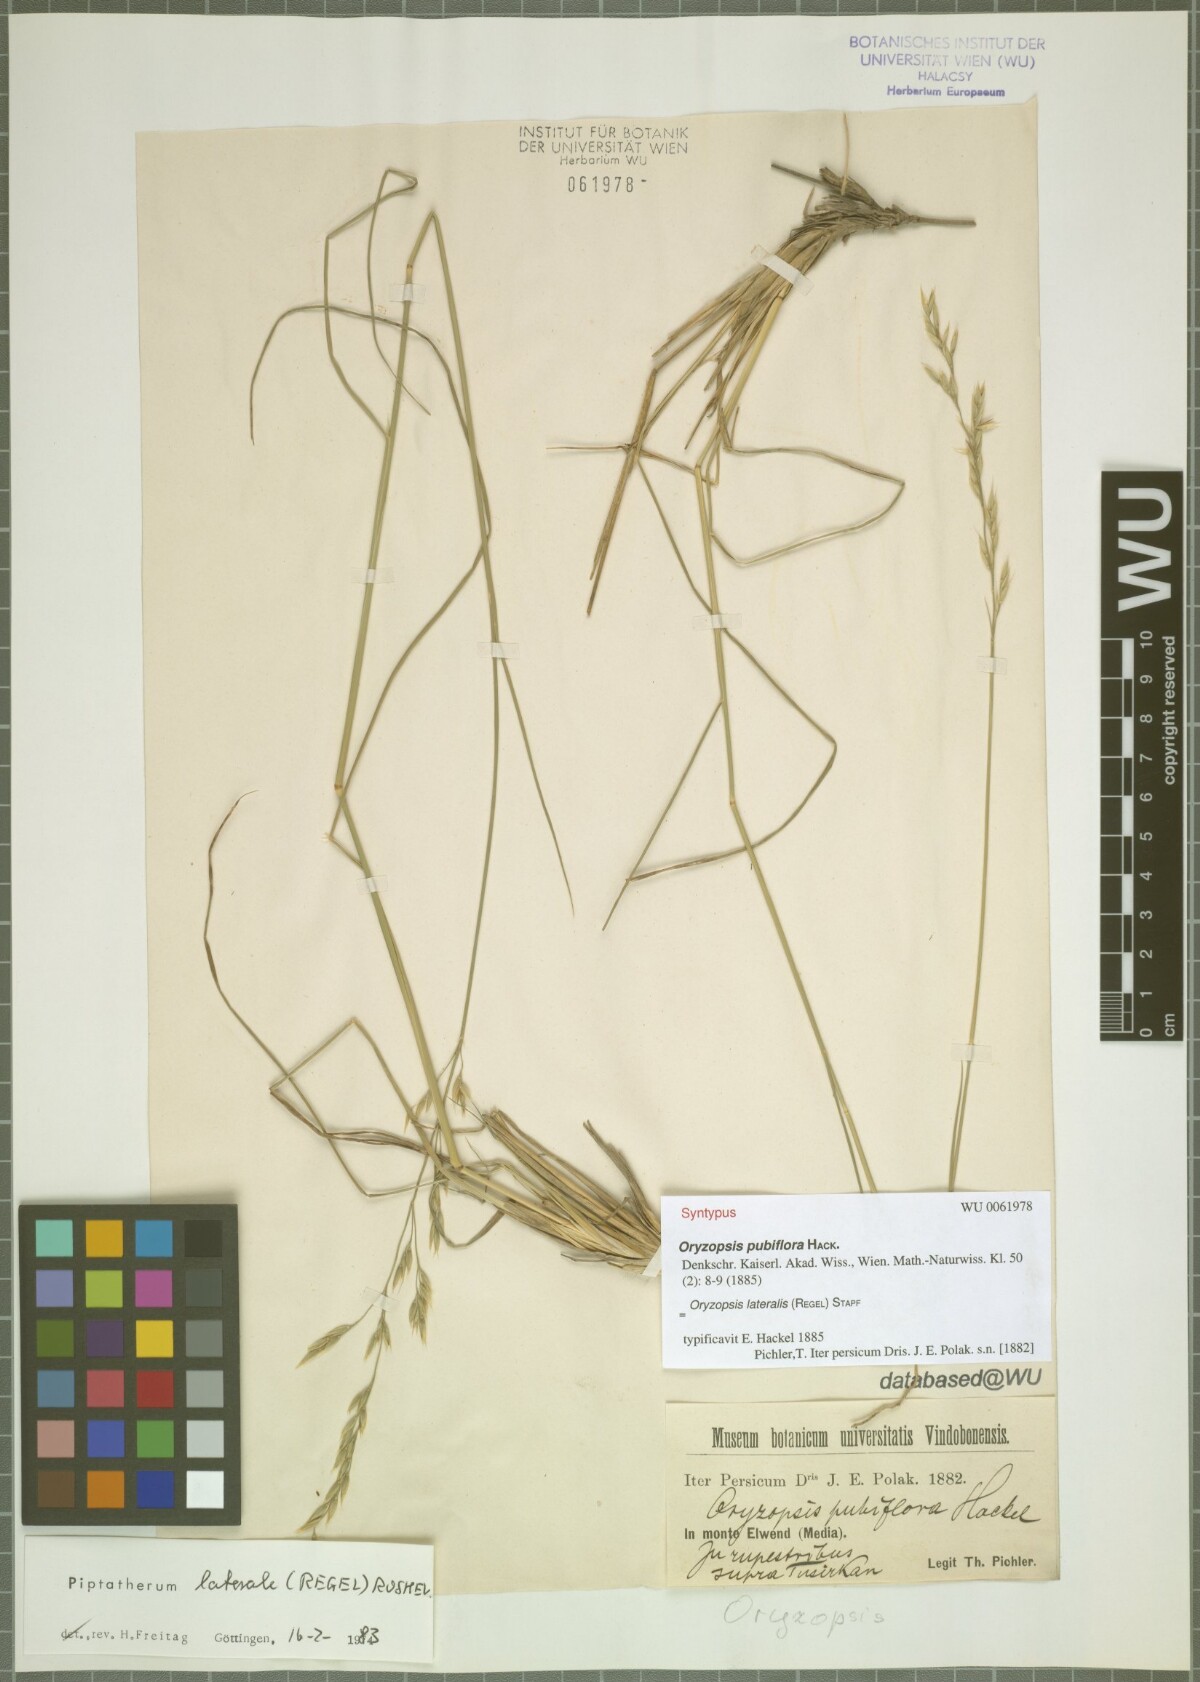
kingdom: Plantae
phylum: Tracheophyta
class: Liliopsida
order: Poales
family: Poaceae
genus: Piptatherum
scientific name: Piptatherum laterale
